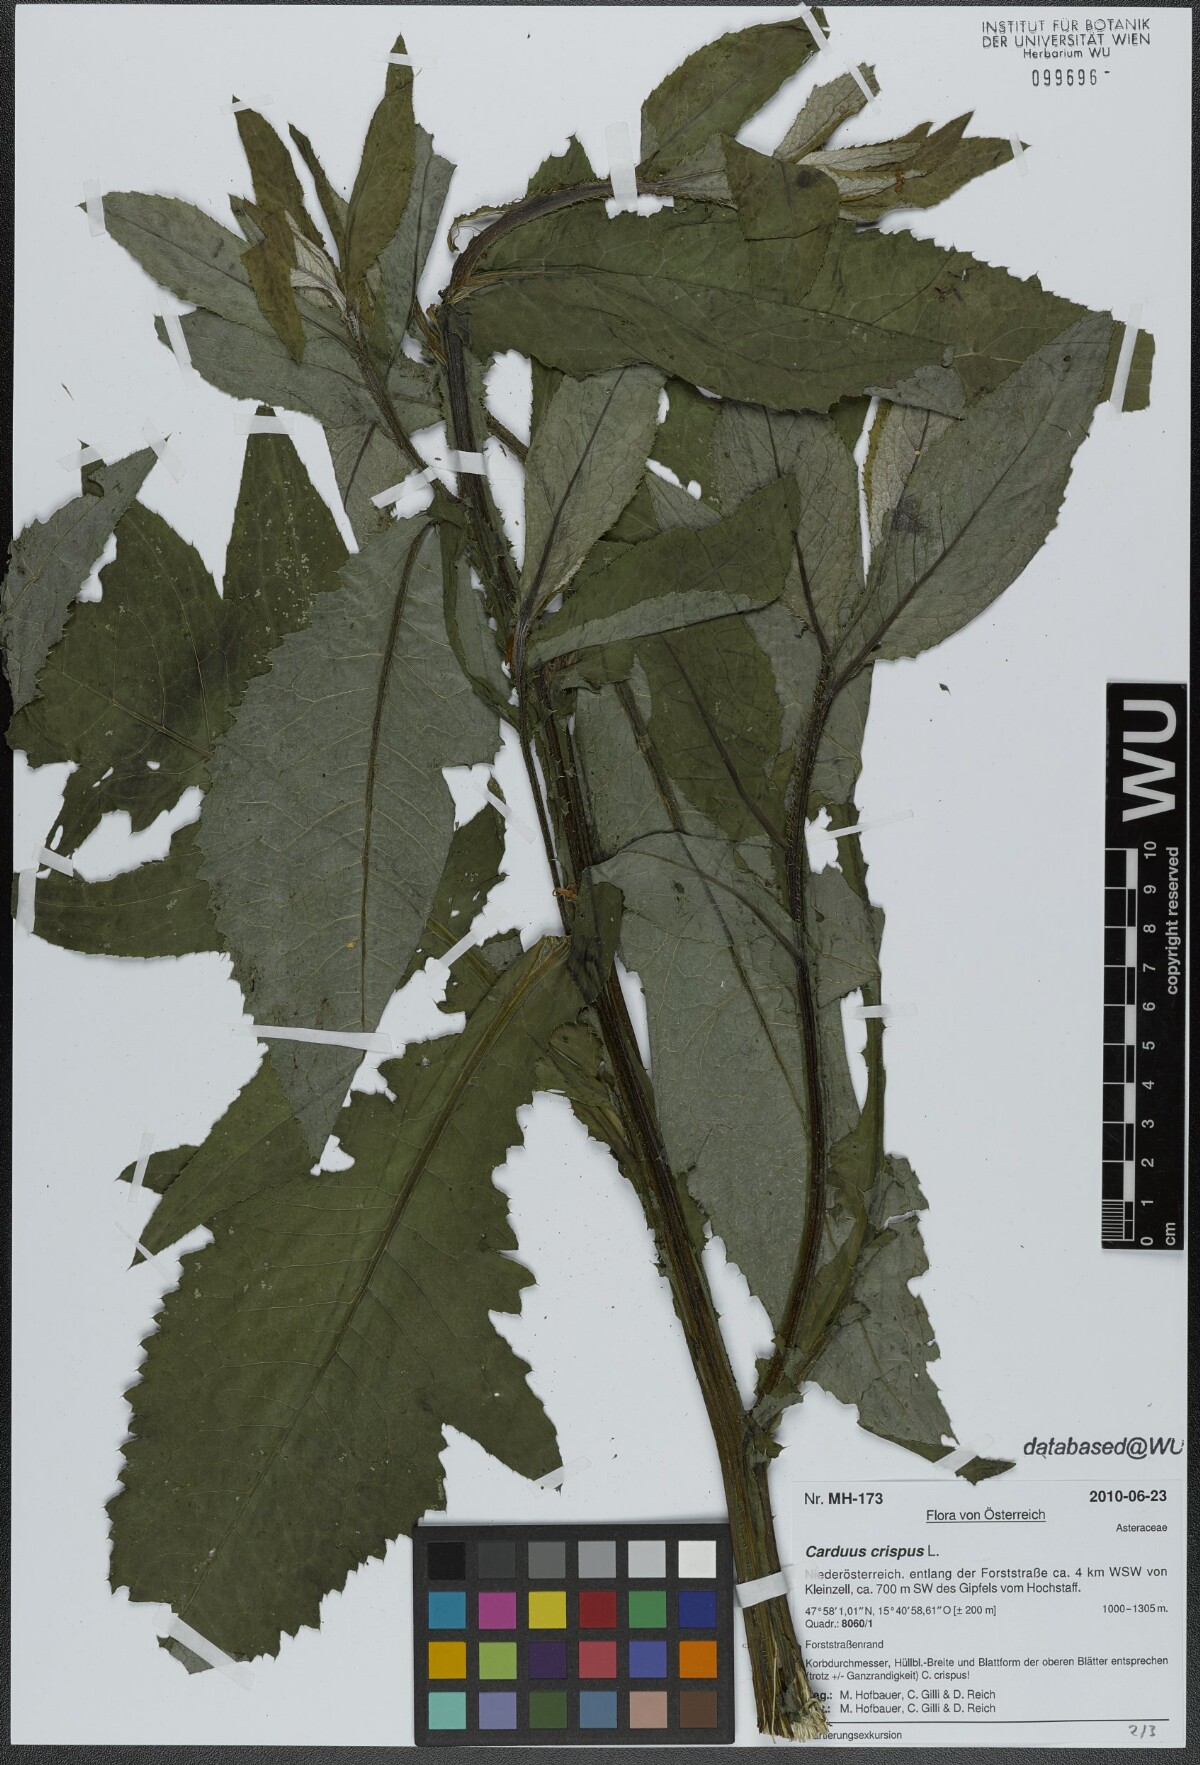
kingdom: Plantae
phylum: Tracheophyta
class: Magnoliopsida
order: Asterales
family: Asteraceae
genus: Carduus
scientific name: Carduus crispus
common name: Welted thistle
